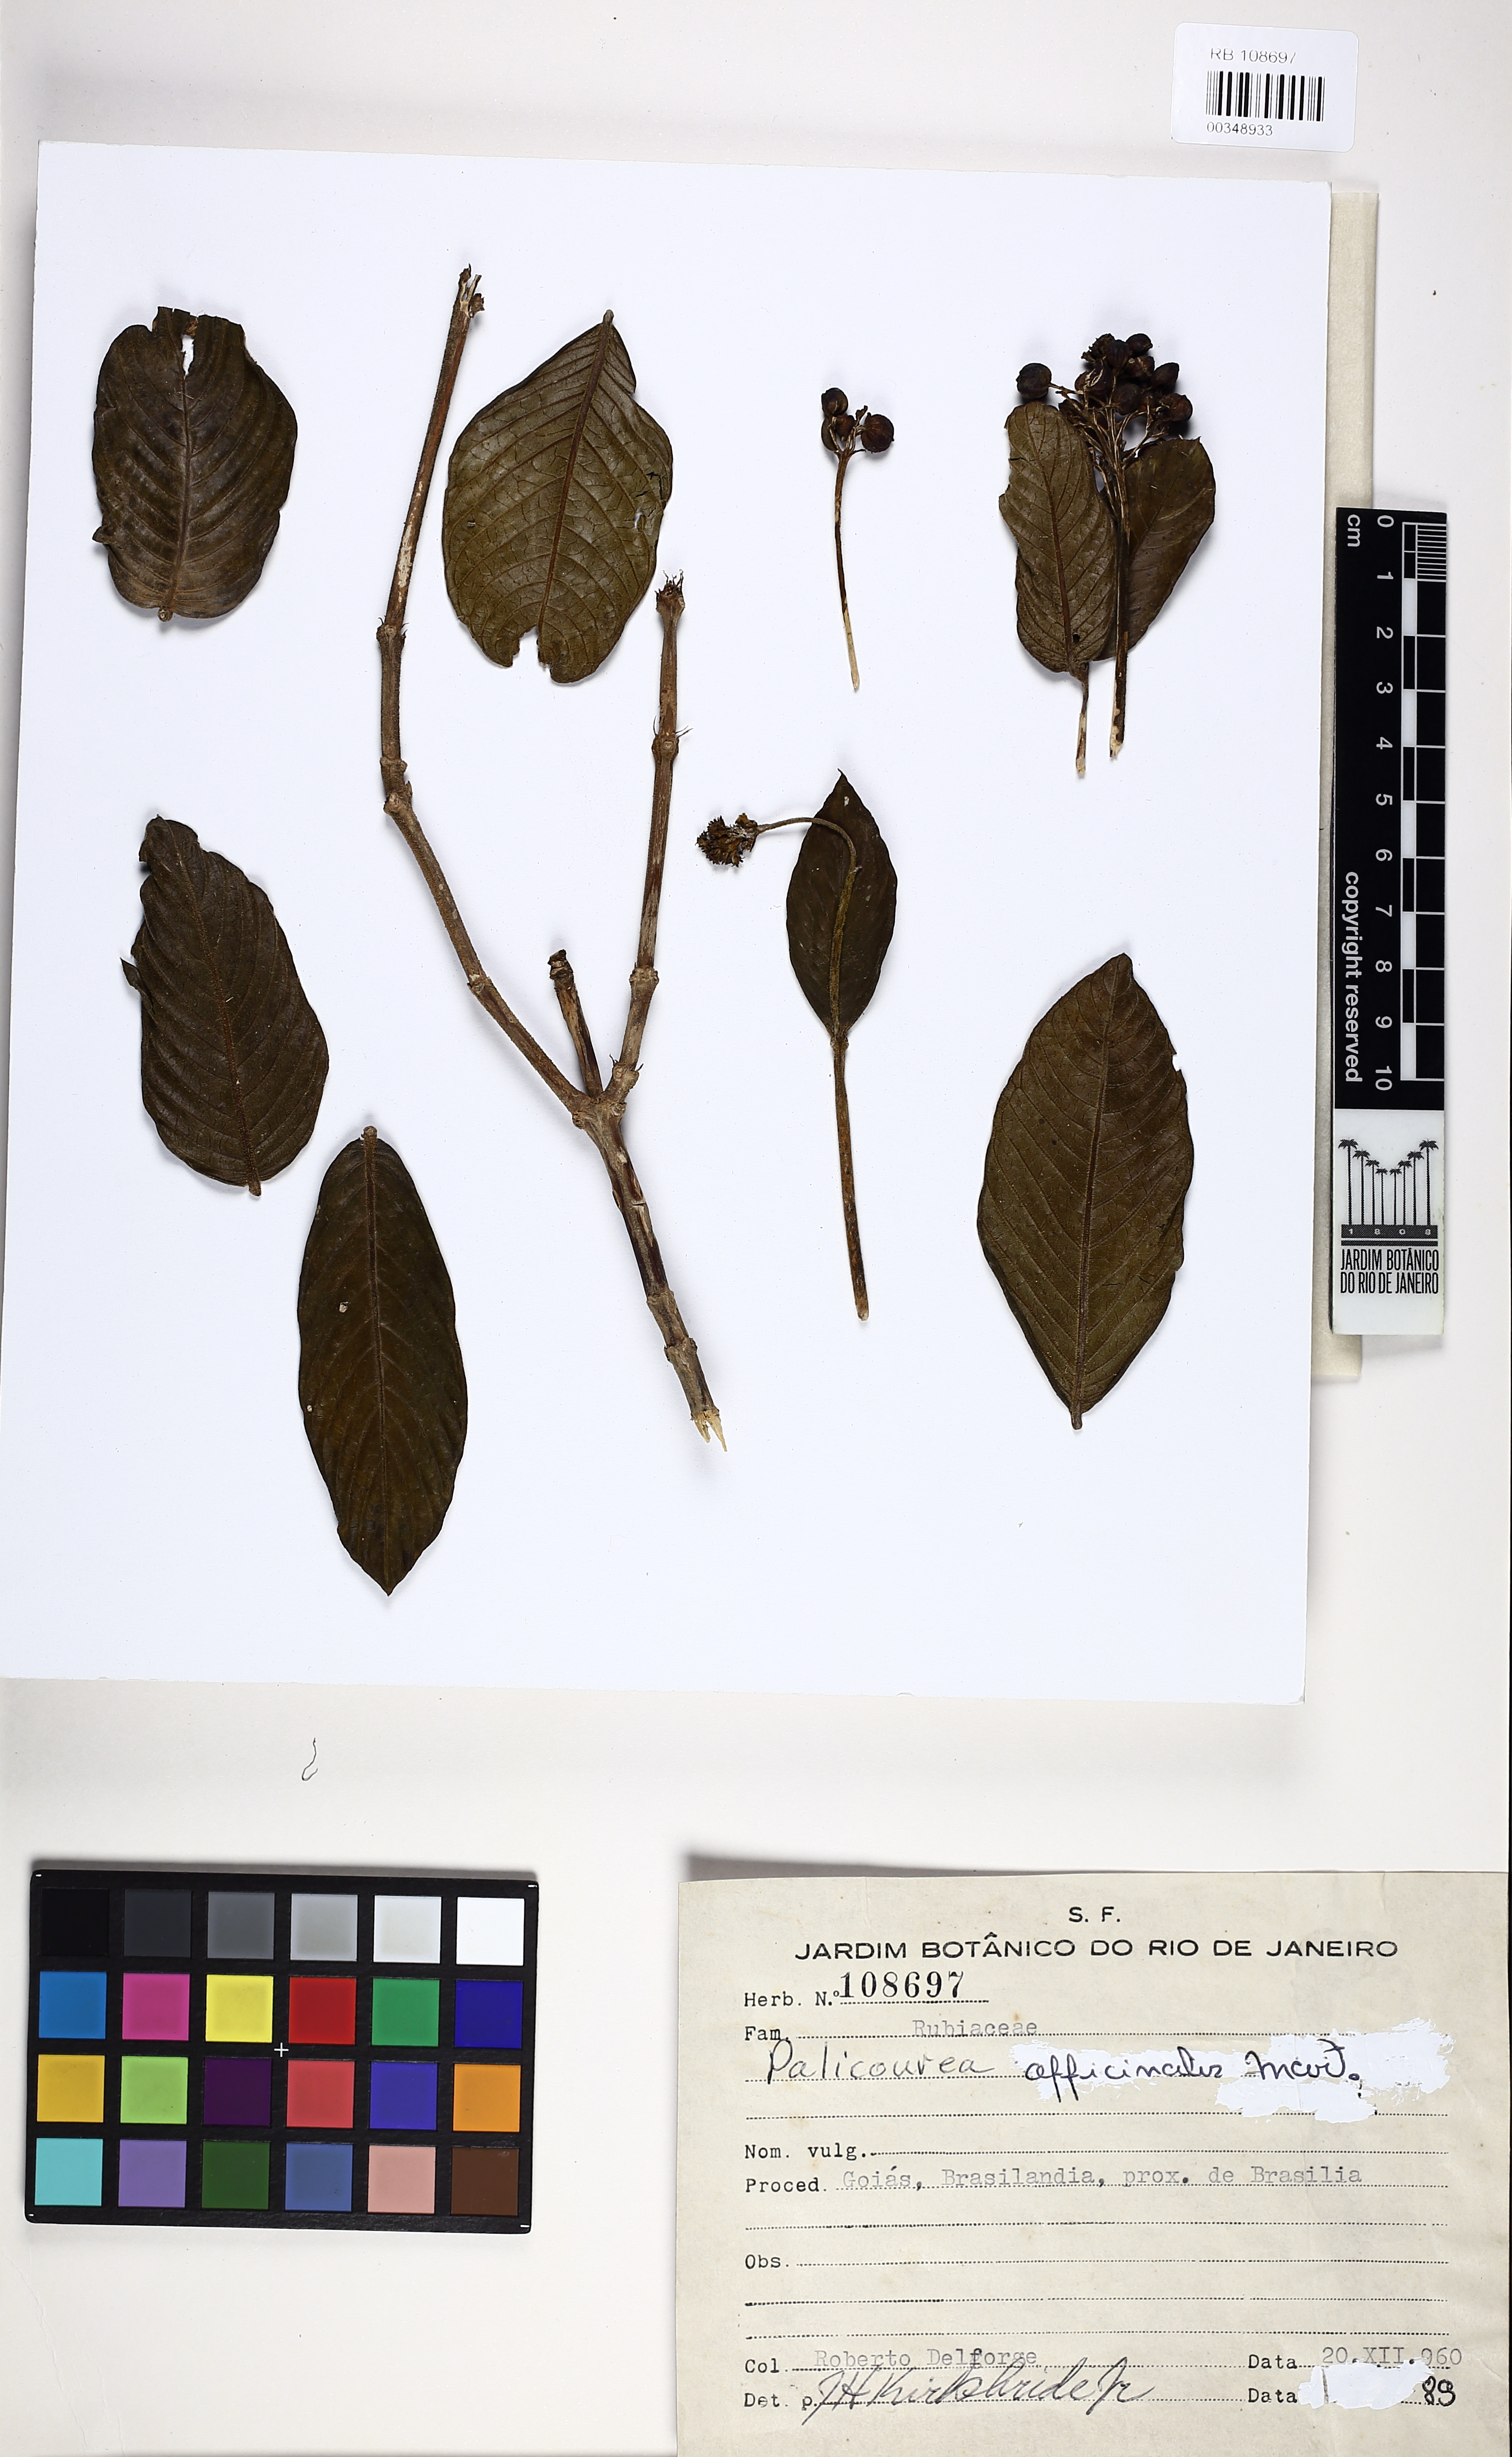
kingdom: Plantae
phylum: Tracheophyta
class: Magnoliopsida
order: Gentianales
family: Rubiaceae
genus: Palicourea
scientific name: Palicourea officinalis
